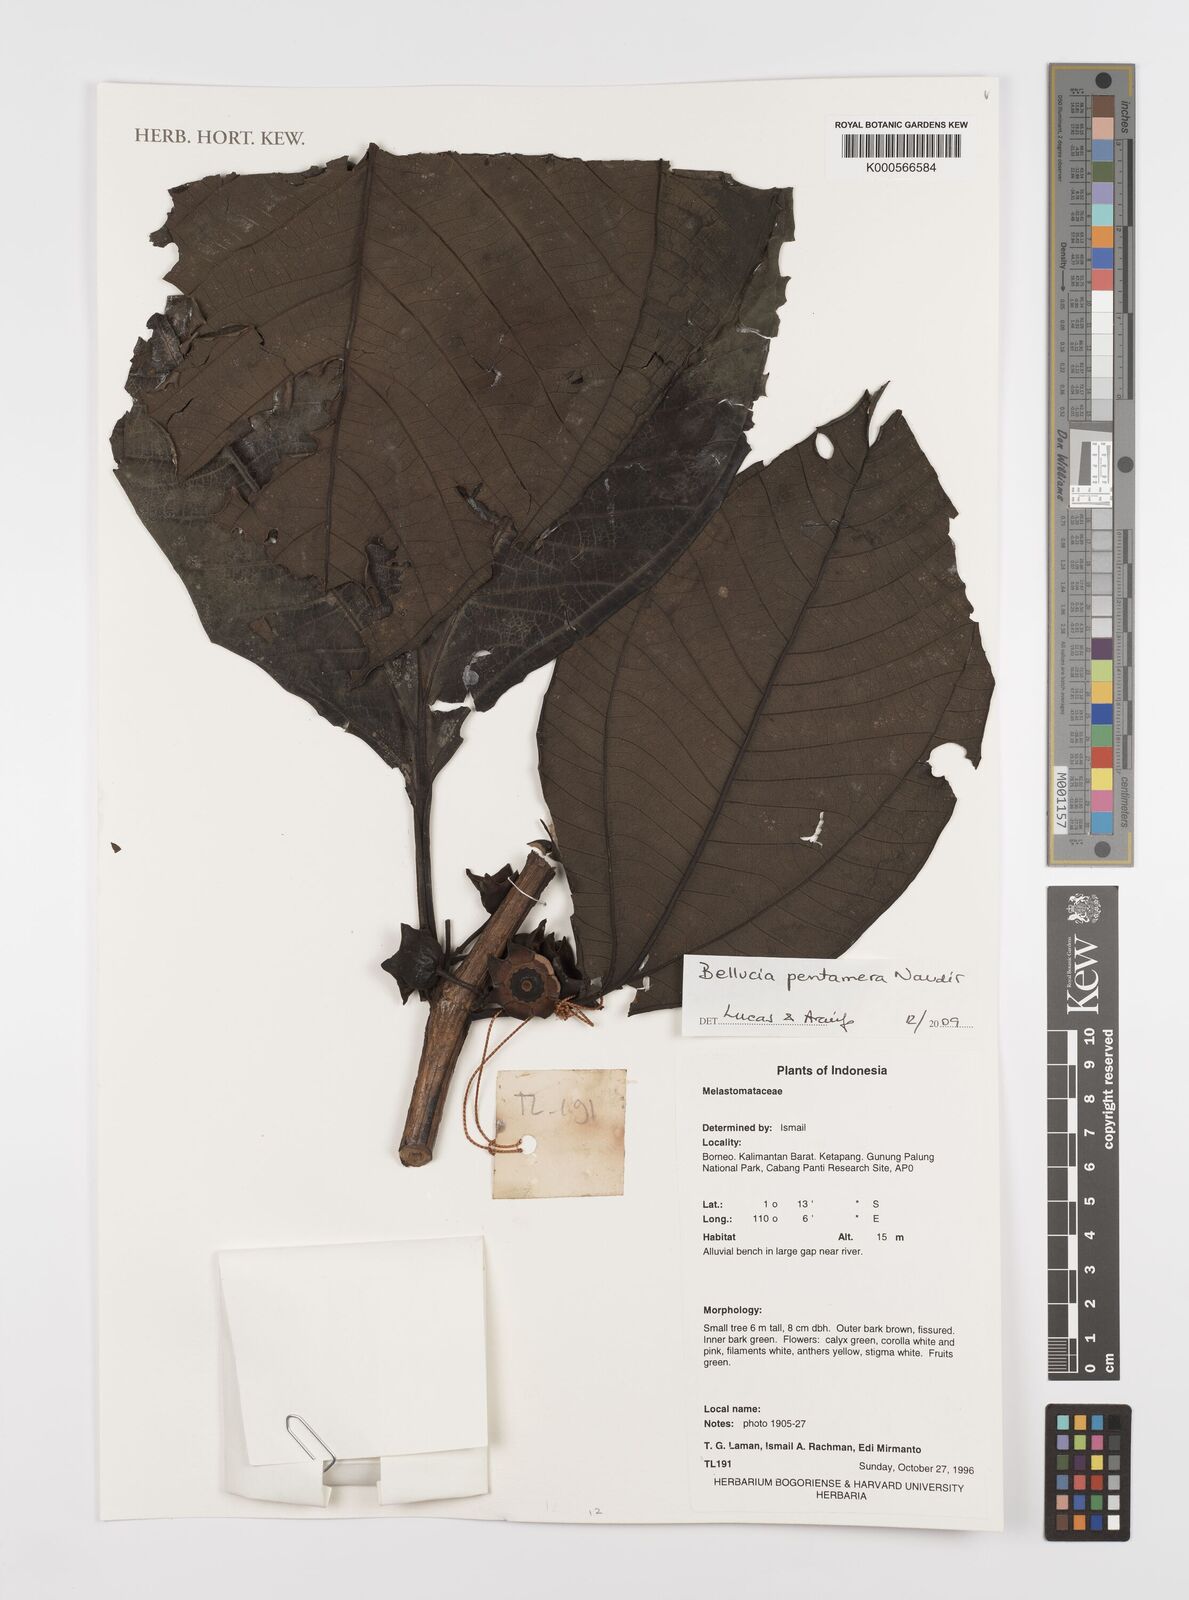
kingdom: Plantae
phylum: Tracheophyta
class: Magnoliopsida
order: Myrtales
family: Melastomataceae
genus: Bellucia
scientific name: Bellucia pentamera
